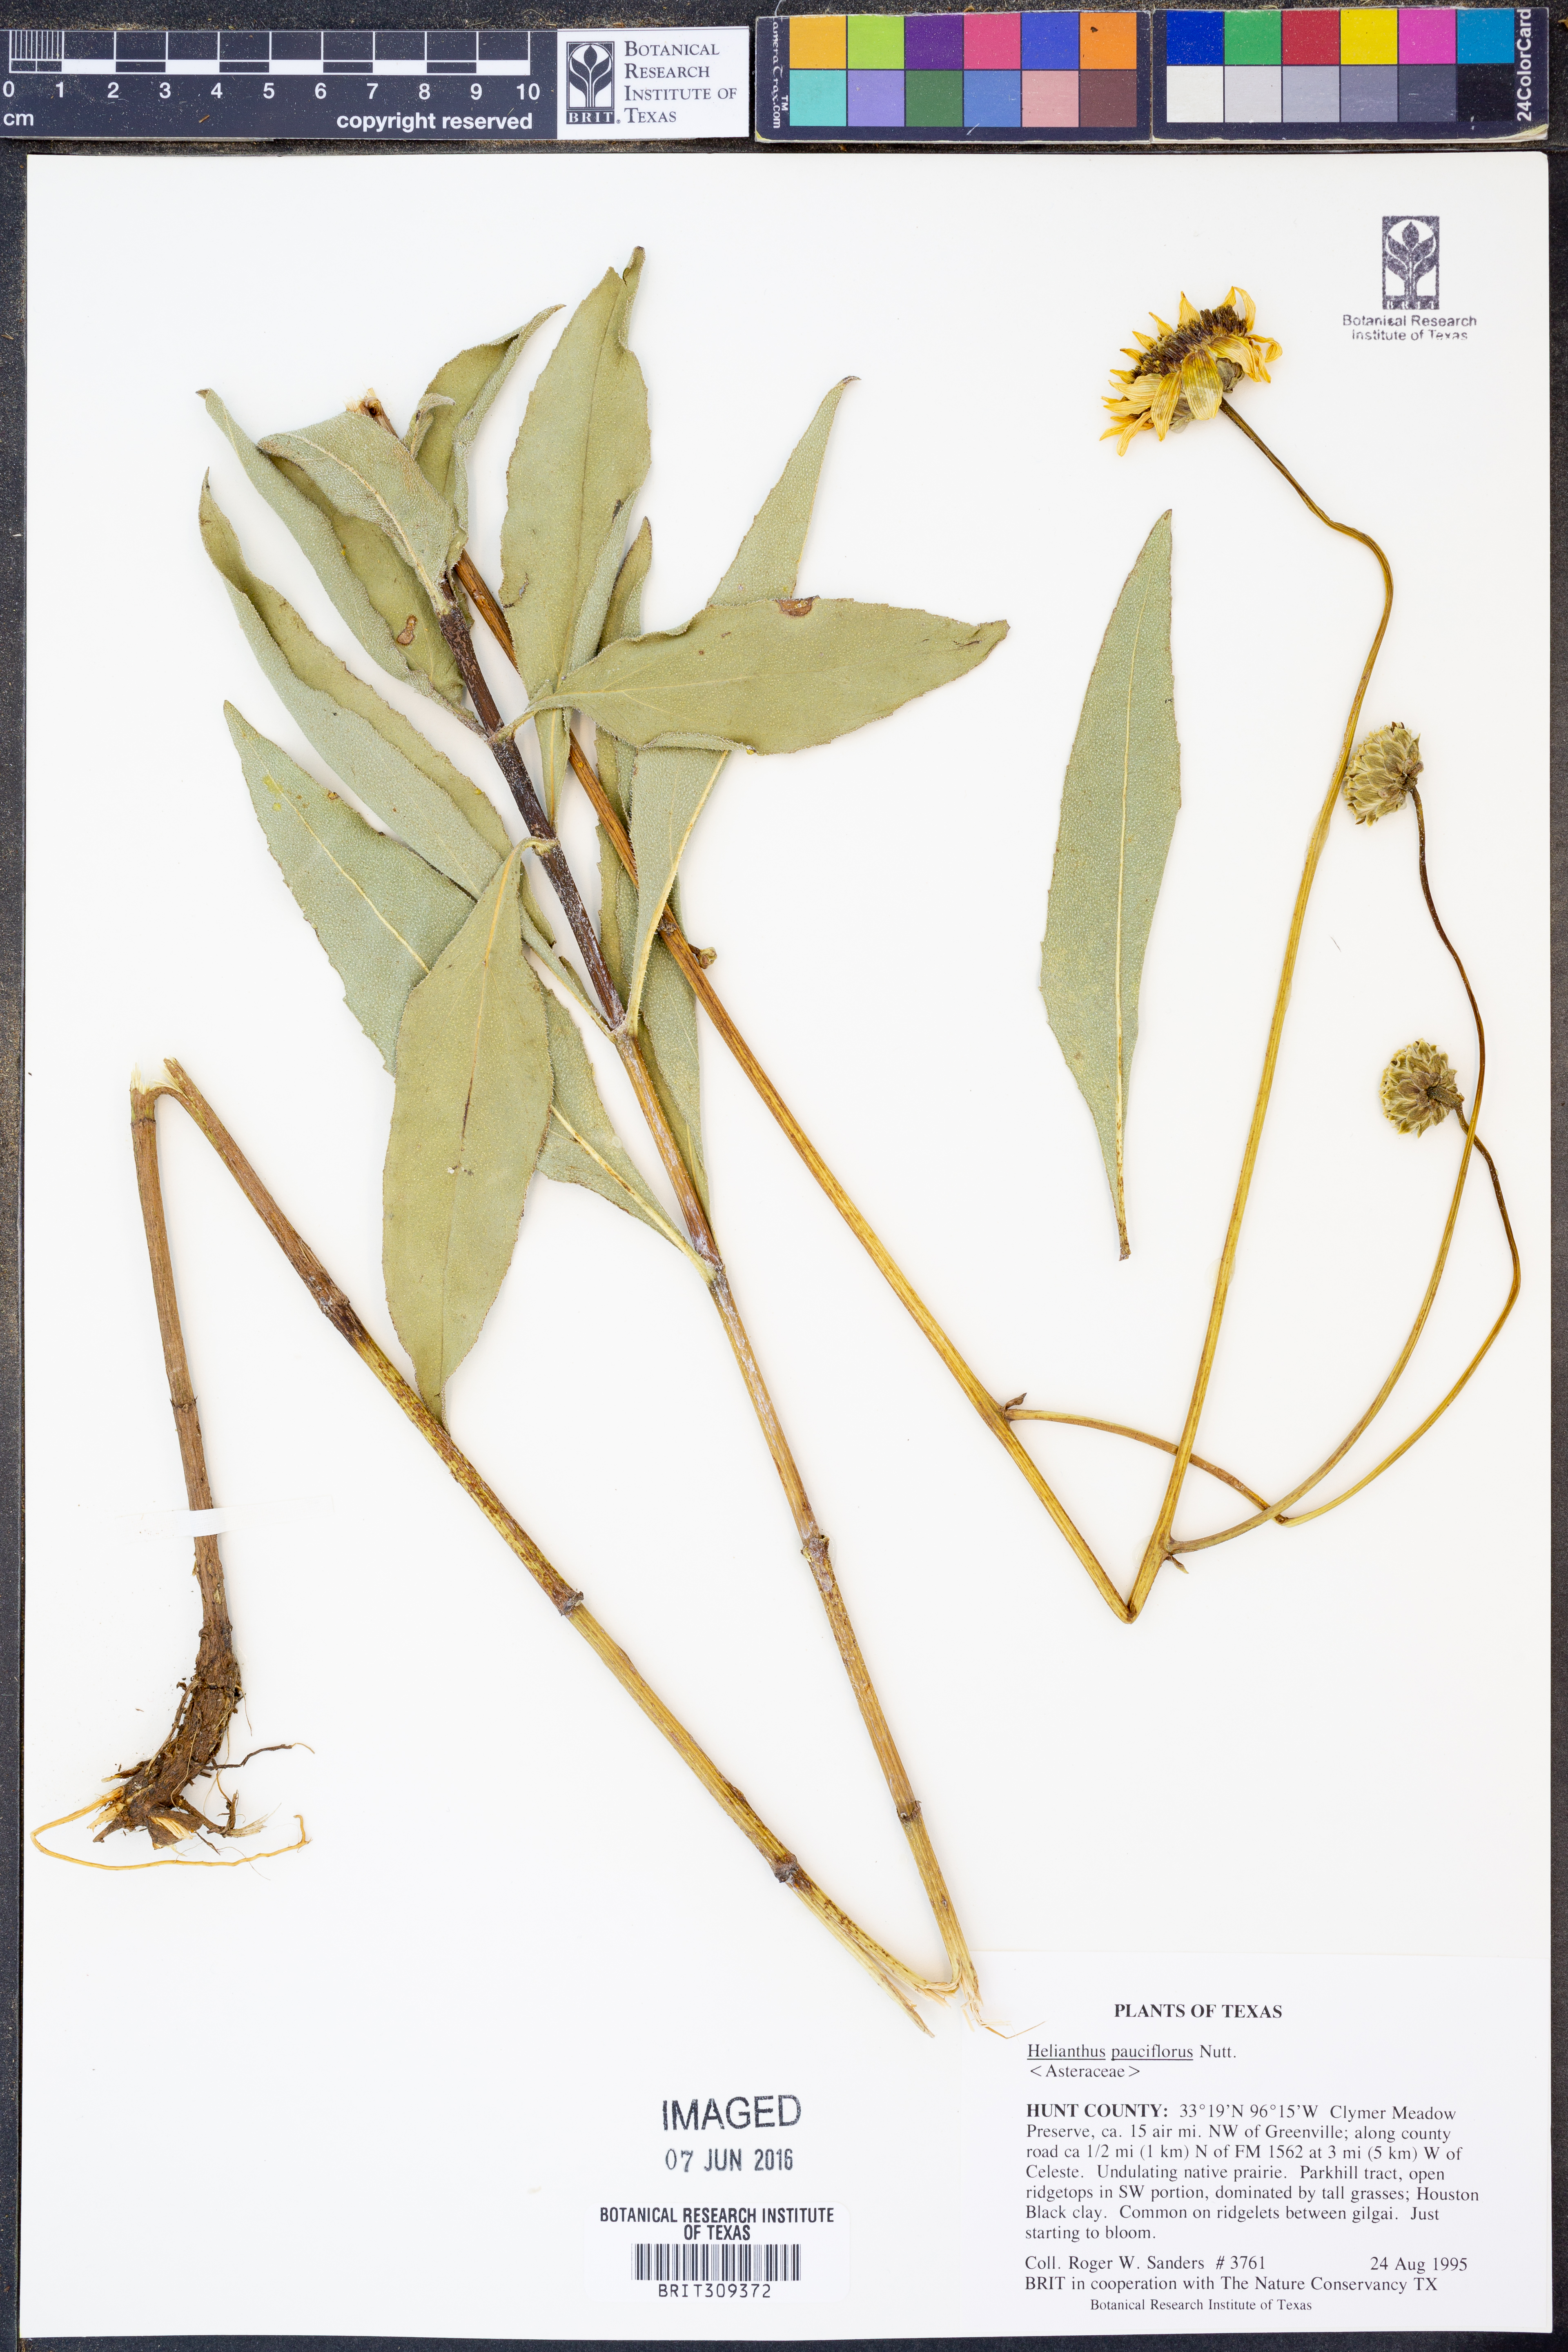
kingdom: Plantae
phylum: Tracheophyta
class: Magnoliopsida
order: Asterales
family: Asteraceae
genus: Helianthus
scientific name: Helianthus pauciflorus
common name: Stiff sunflower
